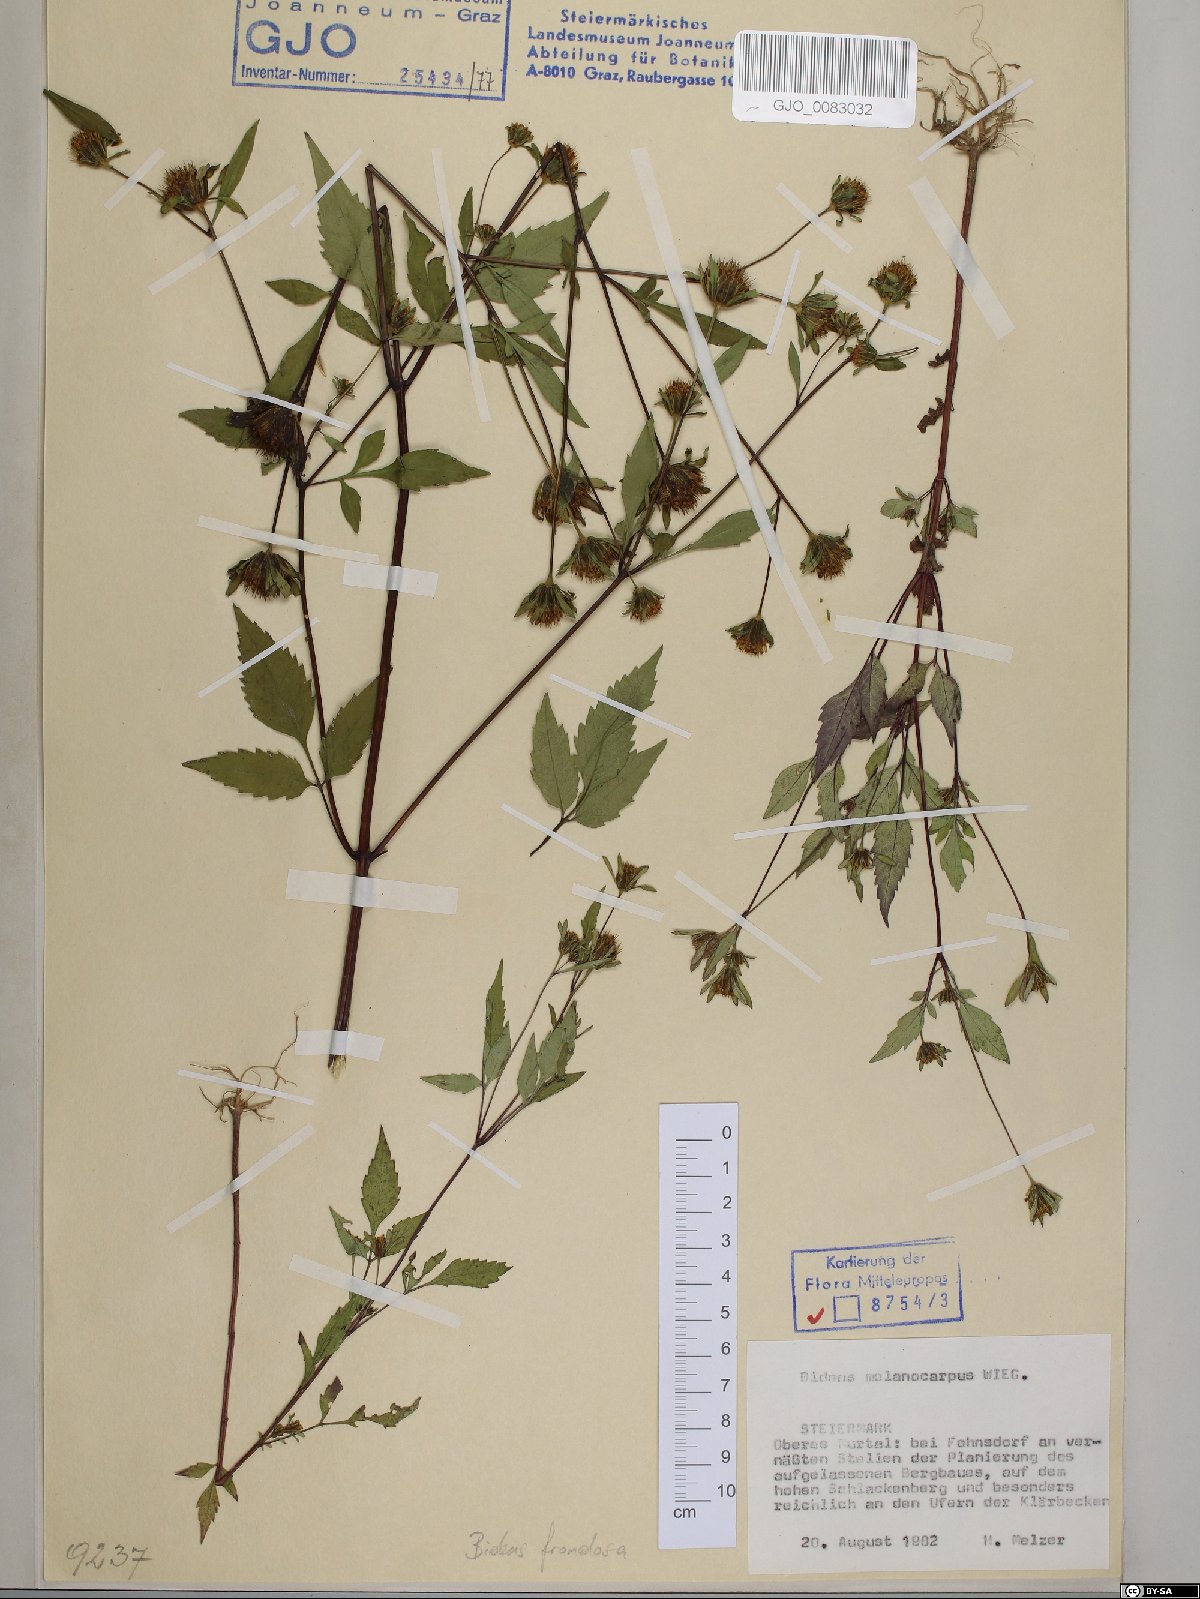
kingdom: Plantae
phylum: Tracheophyta
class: Magnoliopsida
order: Asterales
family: Asteraceae
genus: Bidens
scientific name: Bidens frondosa
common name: Beggarticks
